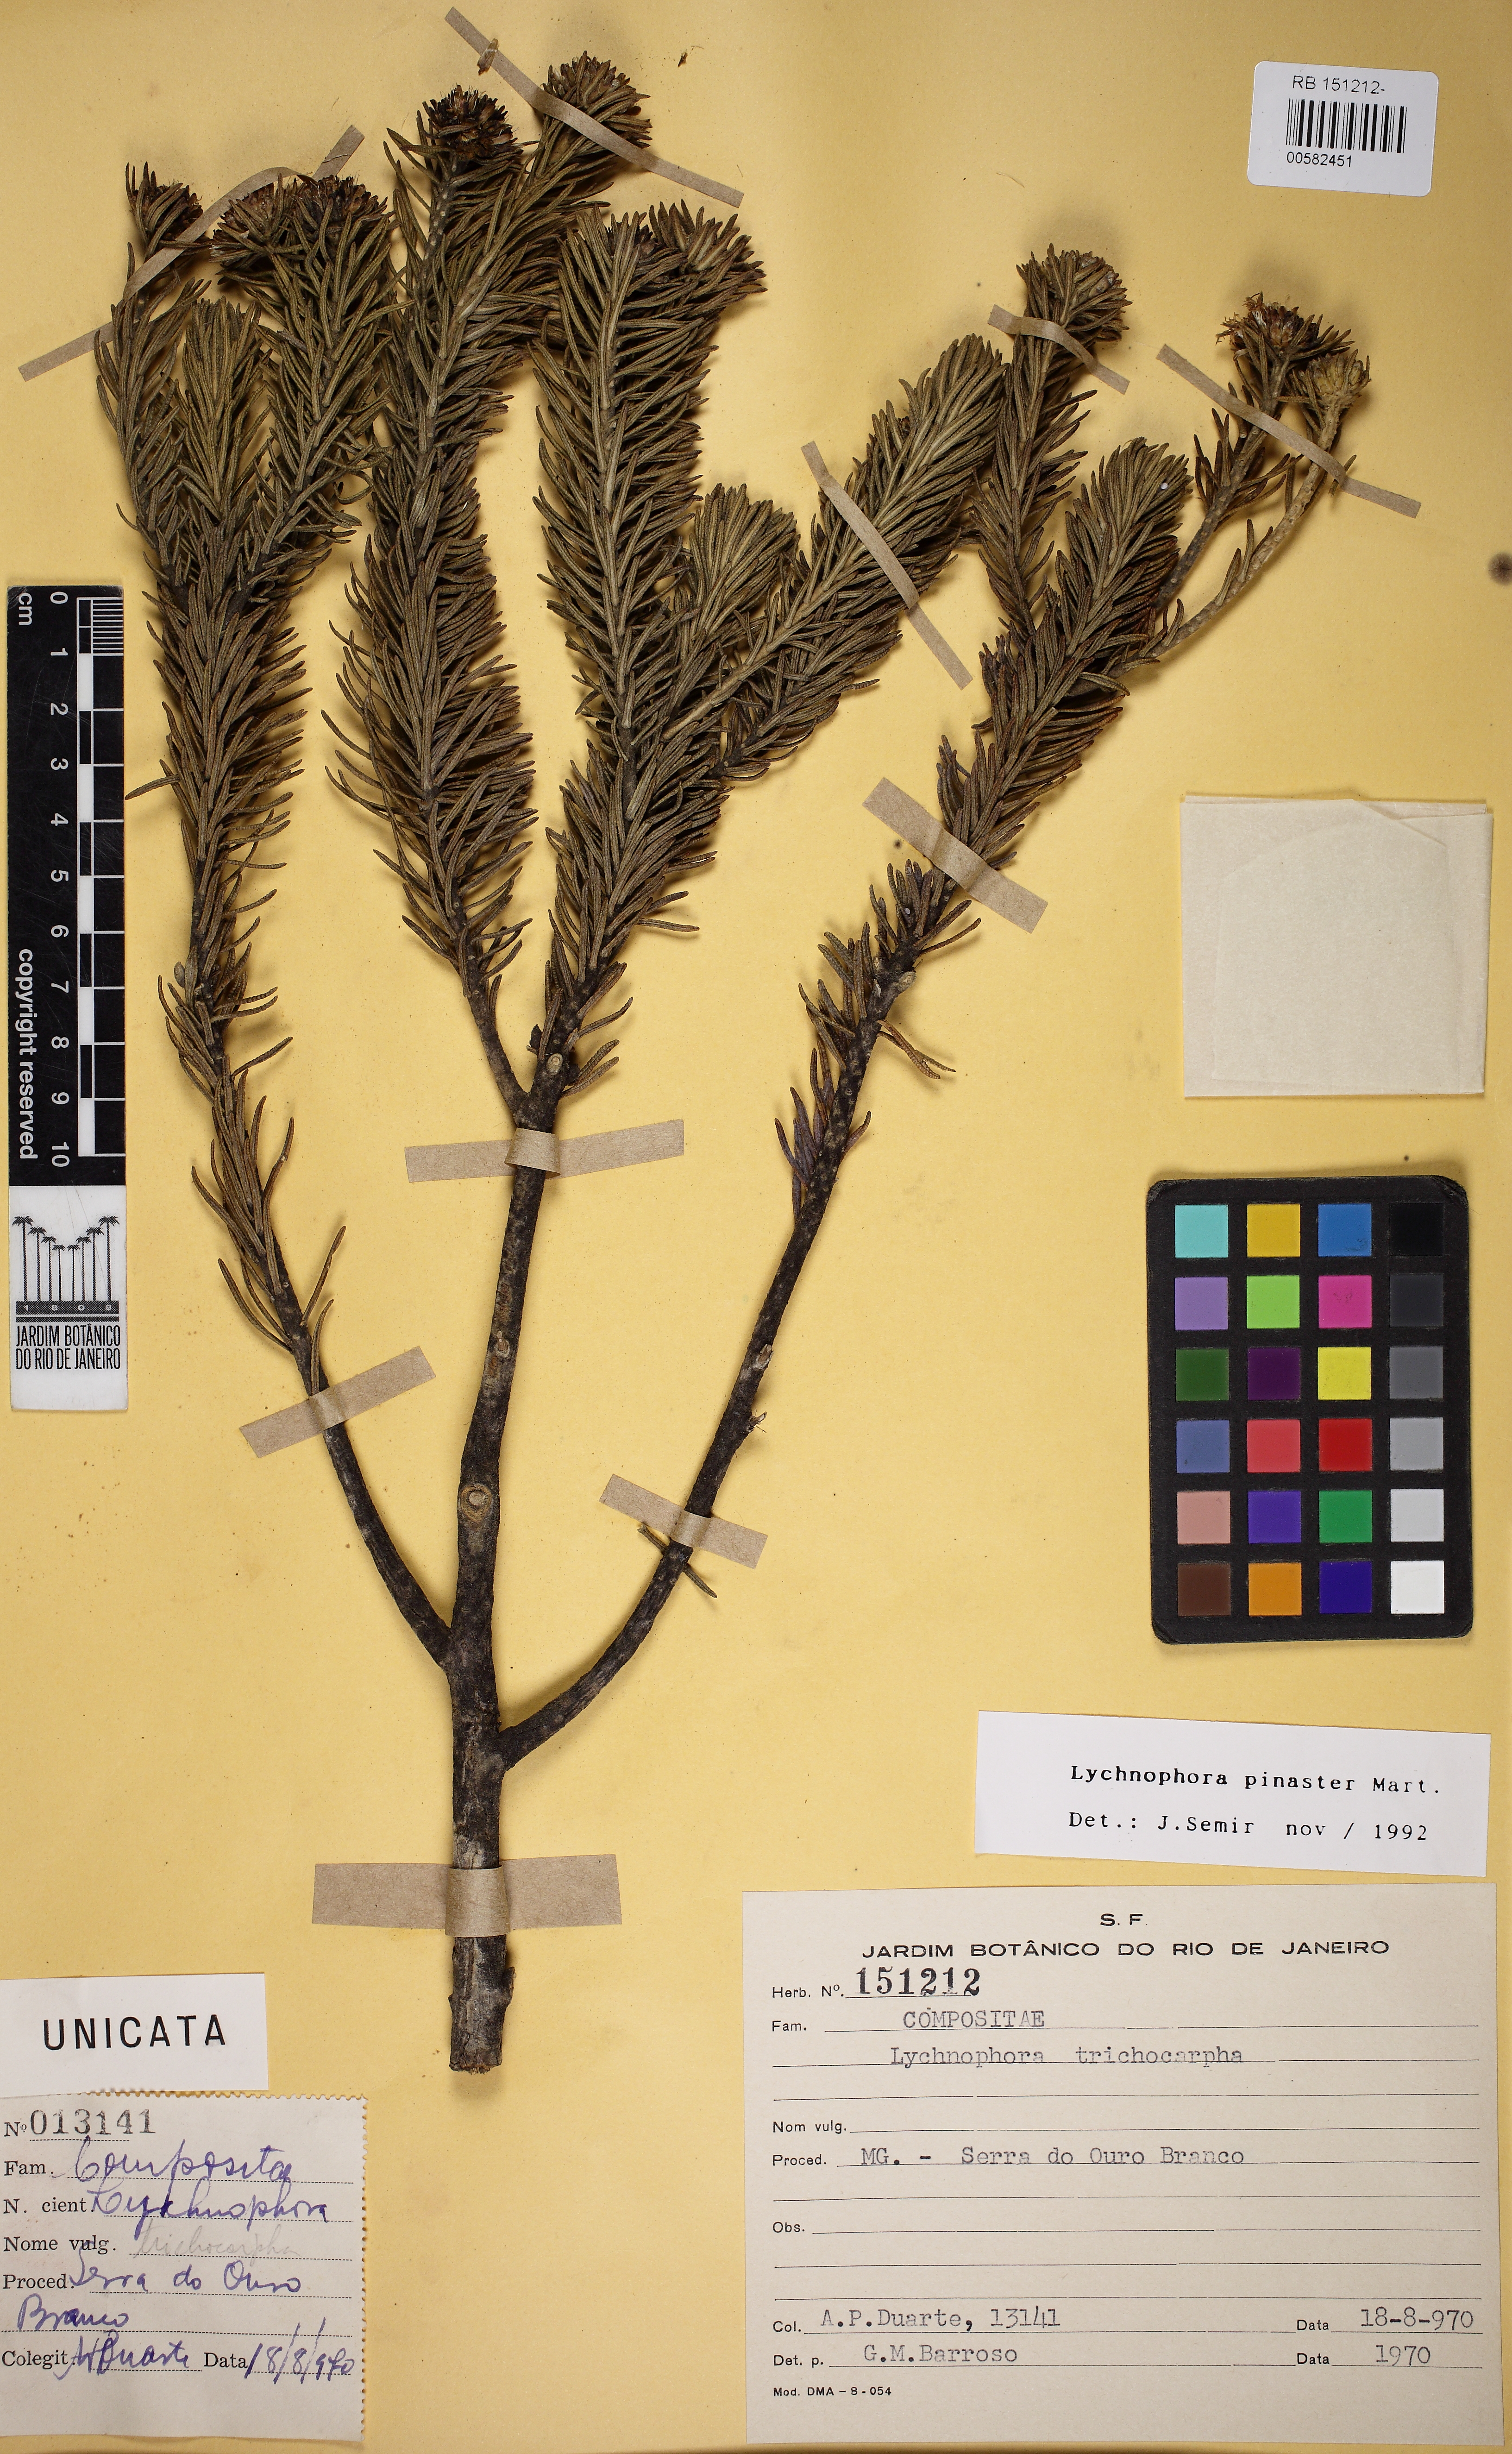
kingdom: Plantae
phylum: Tracheophyta
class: Magnoliopsida
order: Asterales
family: Asteraceae
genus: Lychnophora
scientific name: Lychnophora pinaster
